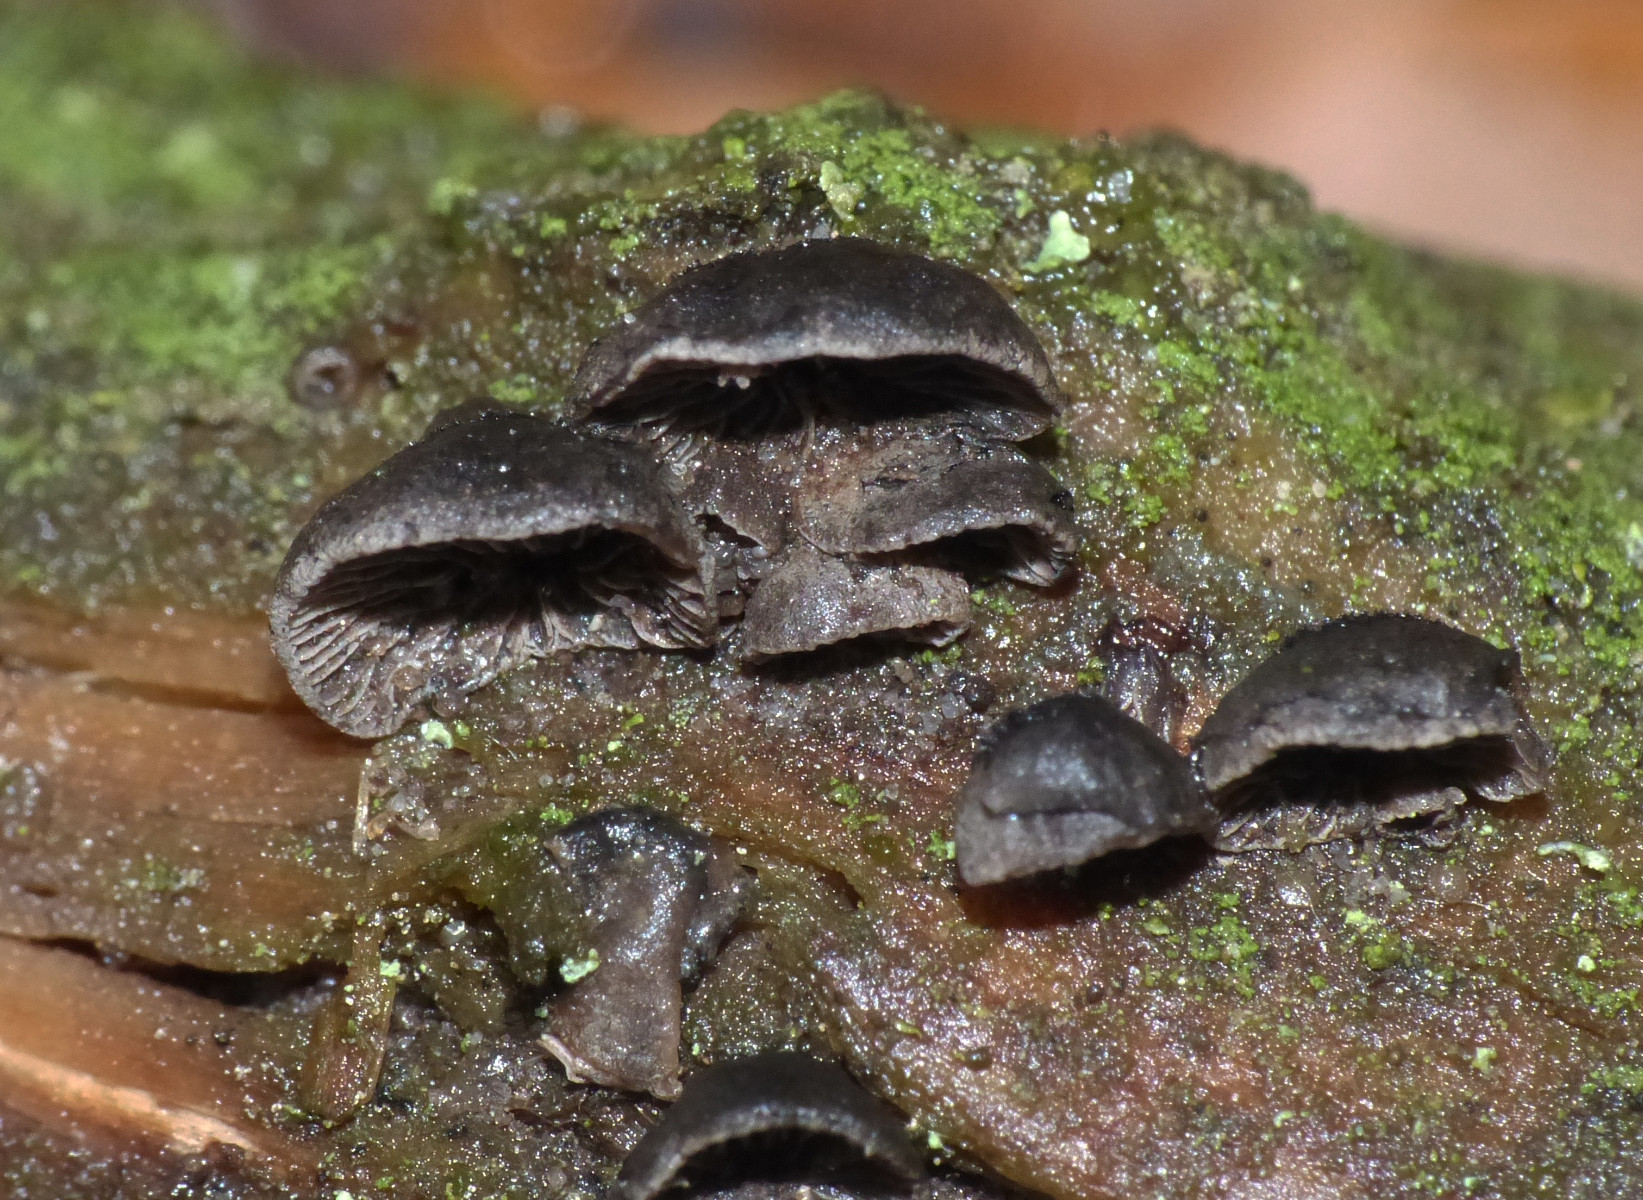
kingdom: Fungi
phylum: Basidiomycota
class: Agaricomycetes
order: Agaricales
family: Pleurotaceae
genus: Resupinatus
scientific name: Resupinatus trichotis
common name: mørkfiltet barkhat
